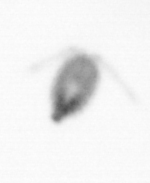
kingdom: Animalia
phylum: Arthropoda
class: Copepoda
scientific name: Copepoda
